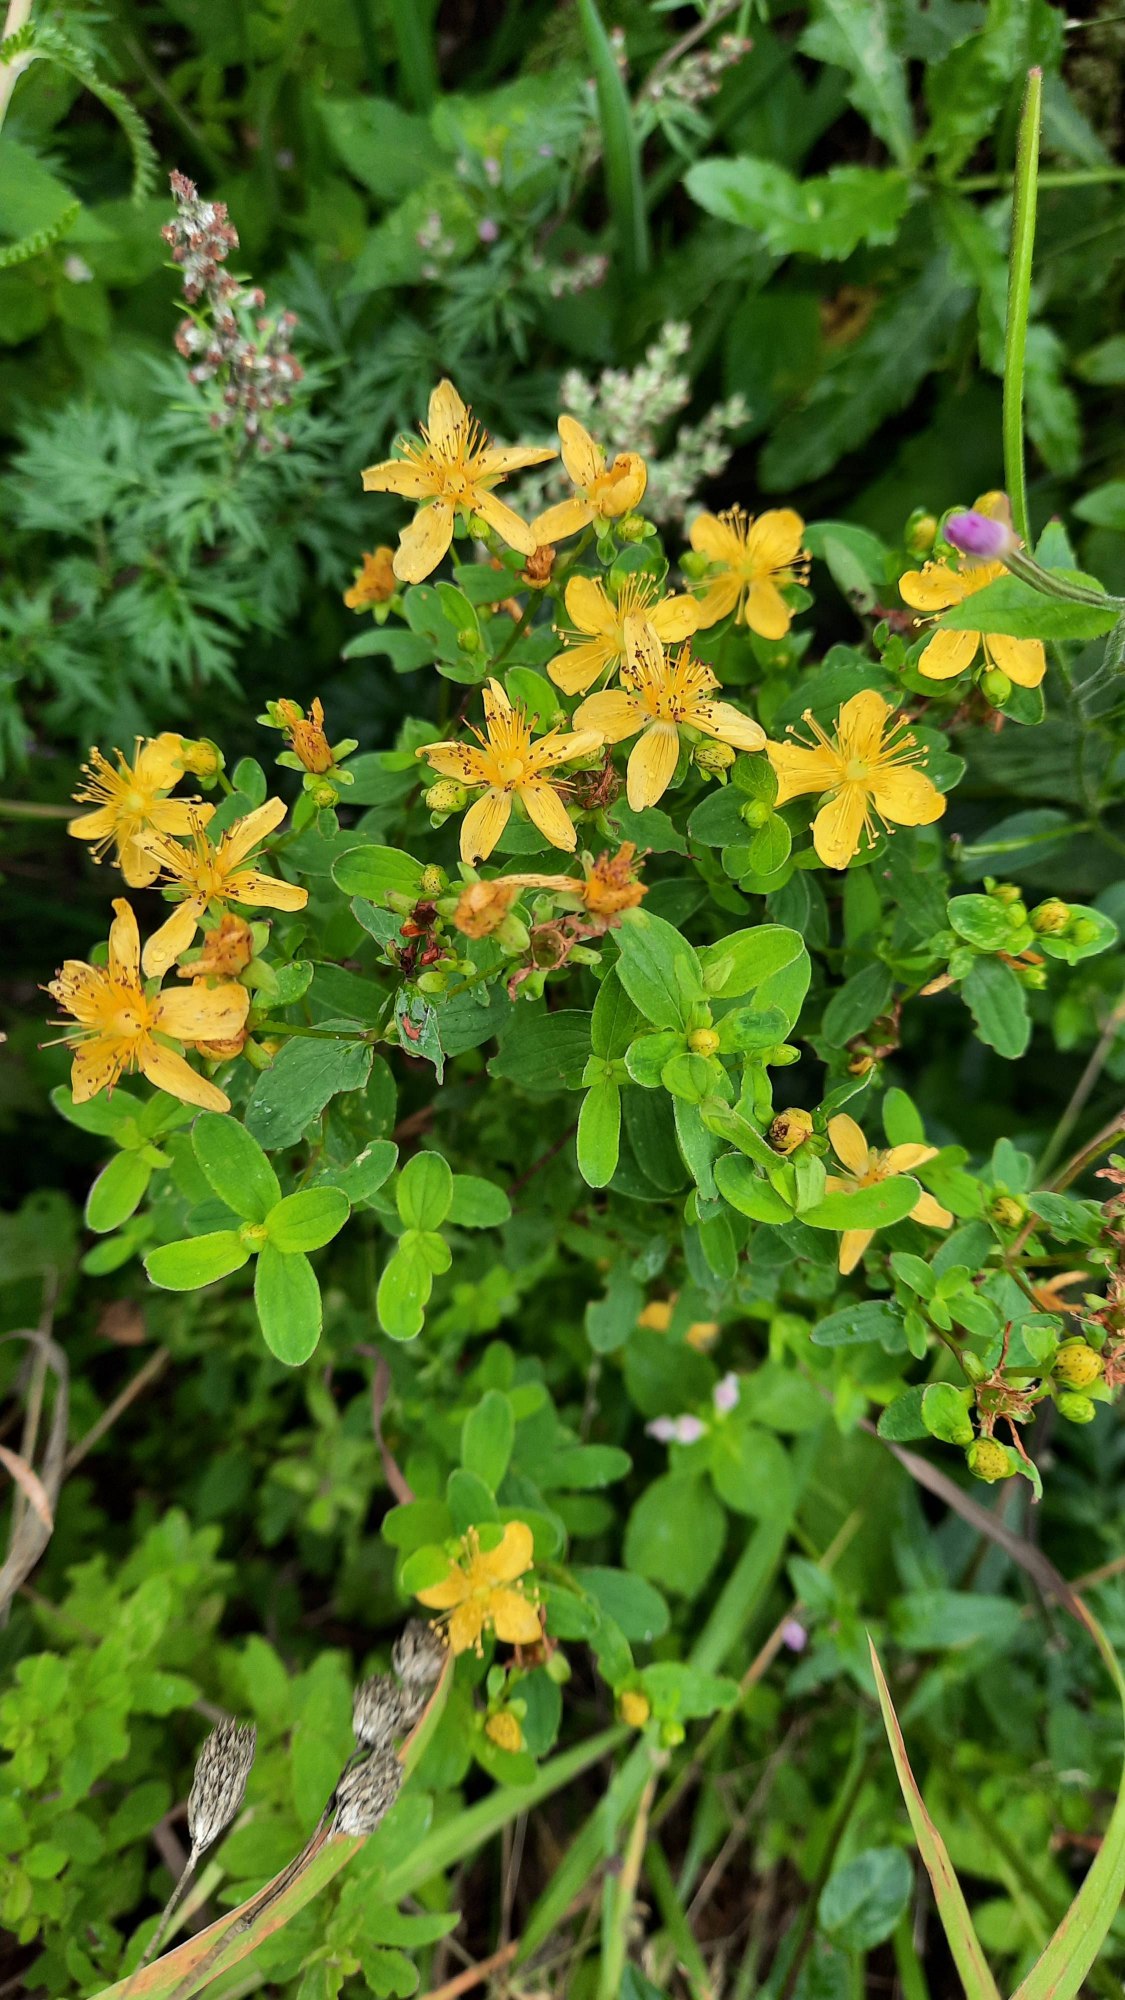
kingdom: Plantae
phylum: Tracheophyta
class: Magnoliopsida
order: Malpighiales
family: Hypericaceae
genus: Hypericum
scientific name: Hypericum maculatum
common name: Kantet perikon
